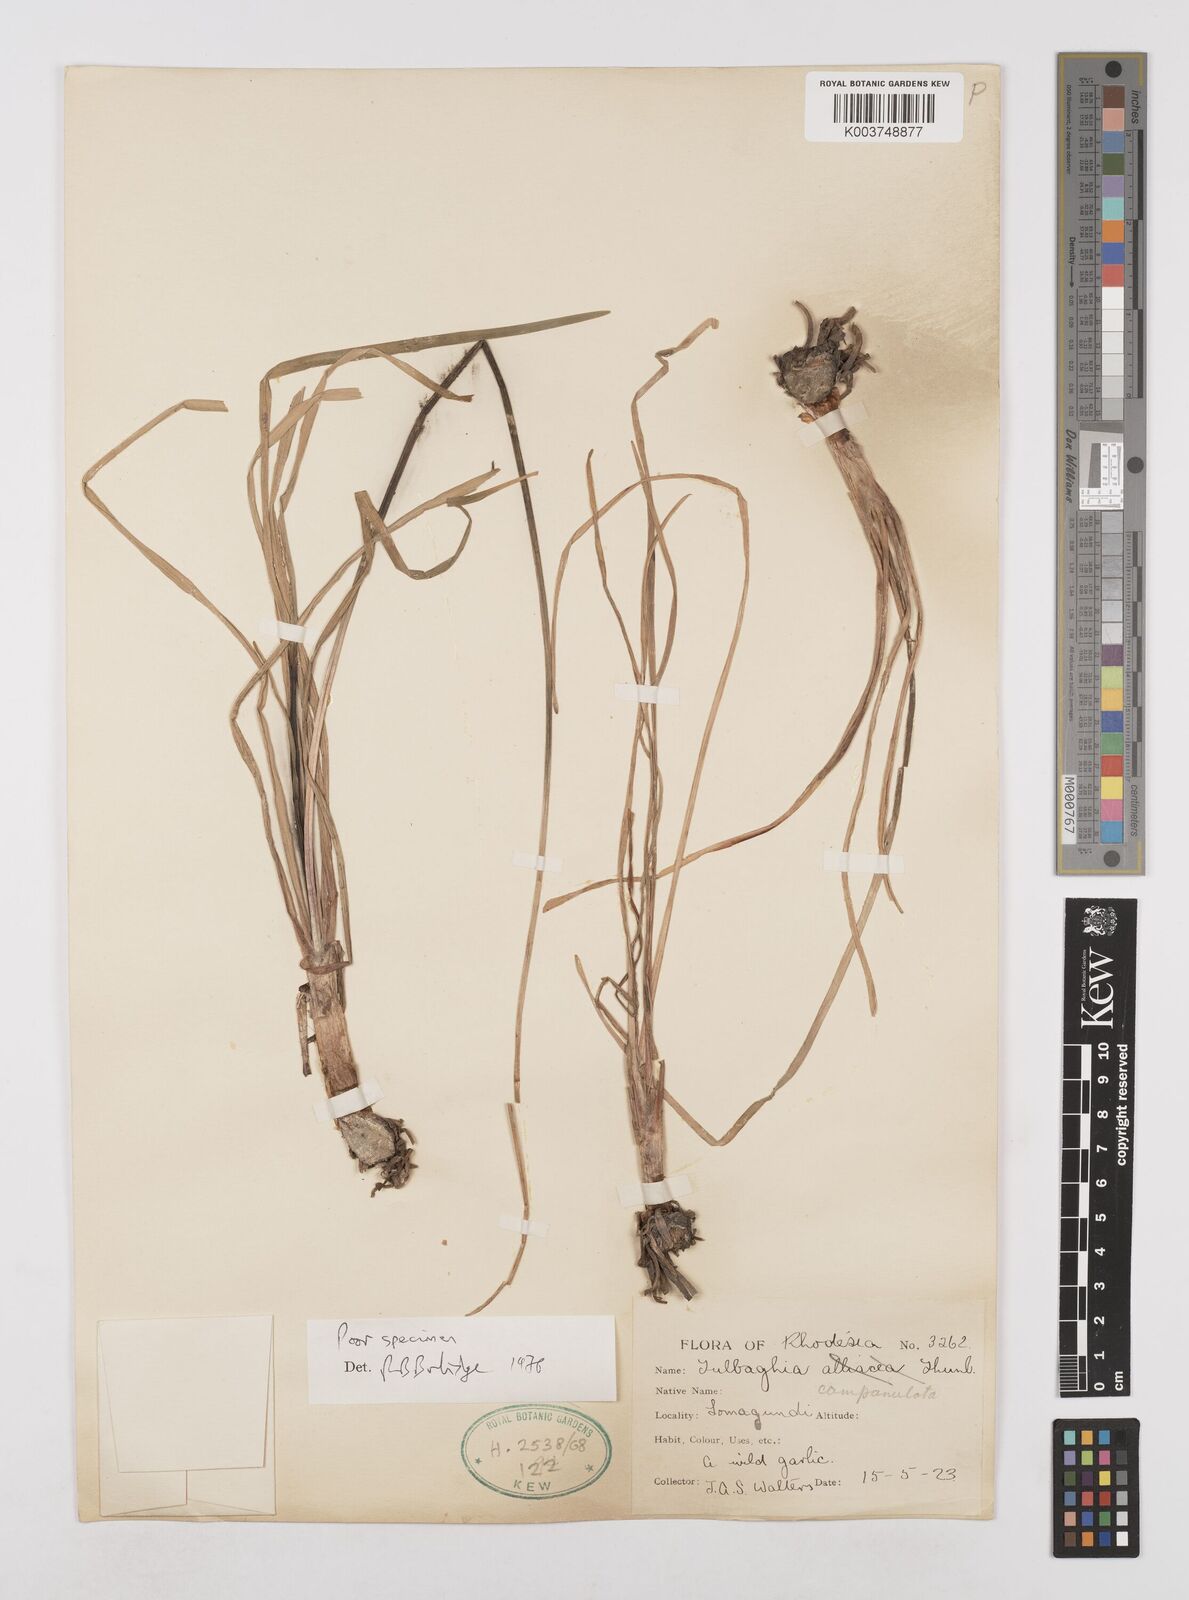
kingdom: Plantae
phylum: Tracheophyta
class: Liliopsida
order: Asparagales
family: Amaryllidaceae
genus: Tulbaghia
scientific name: Tulbaghia
